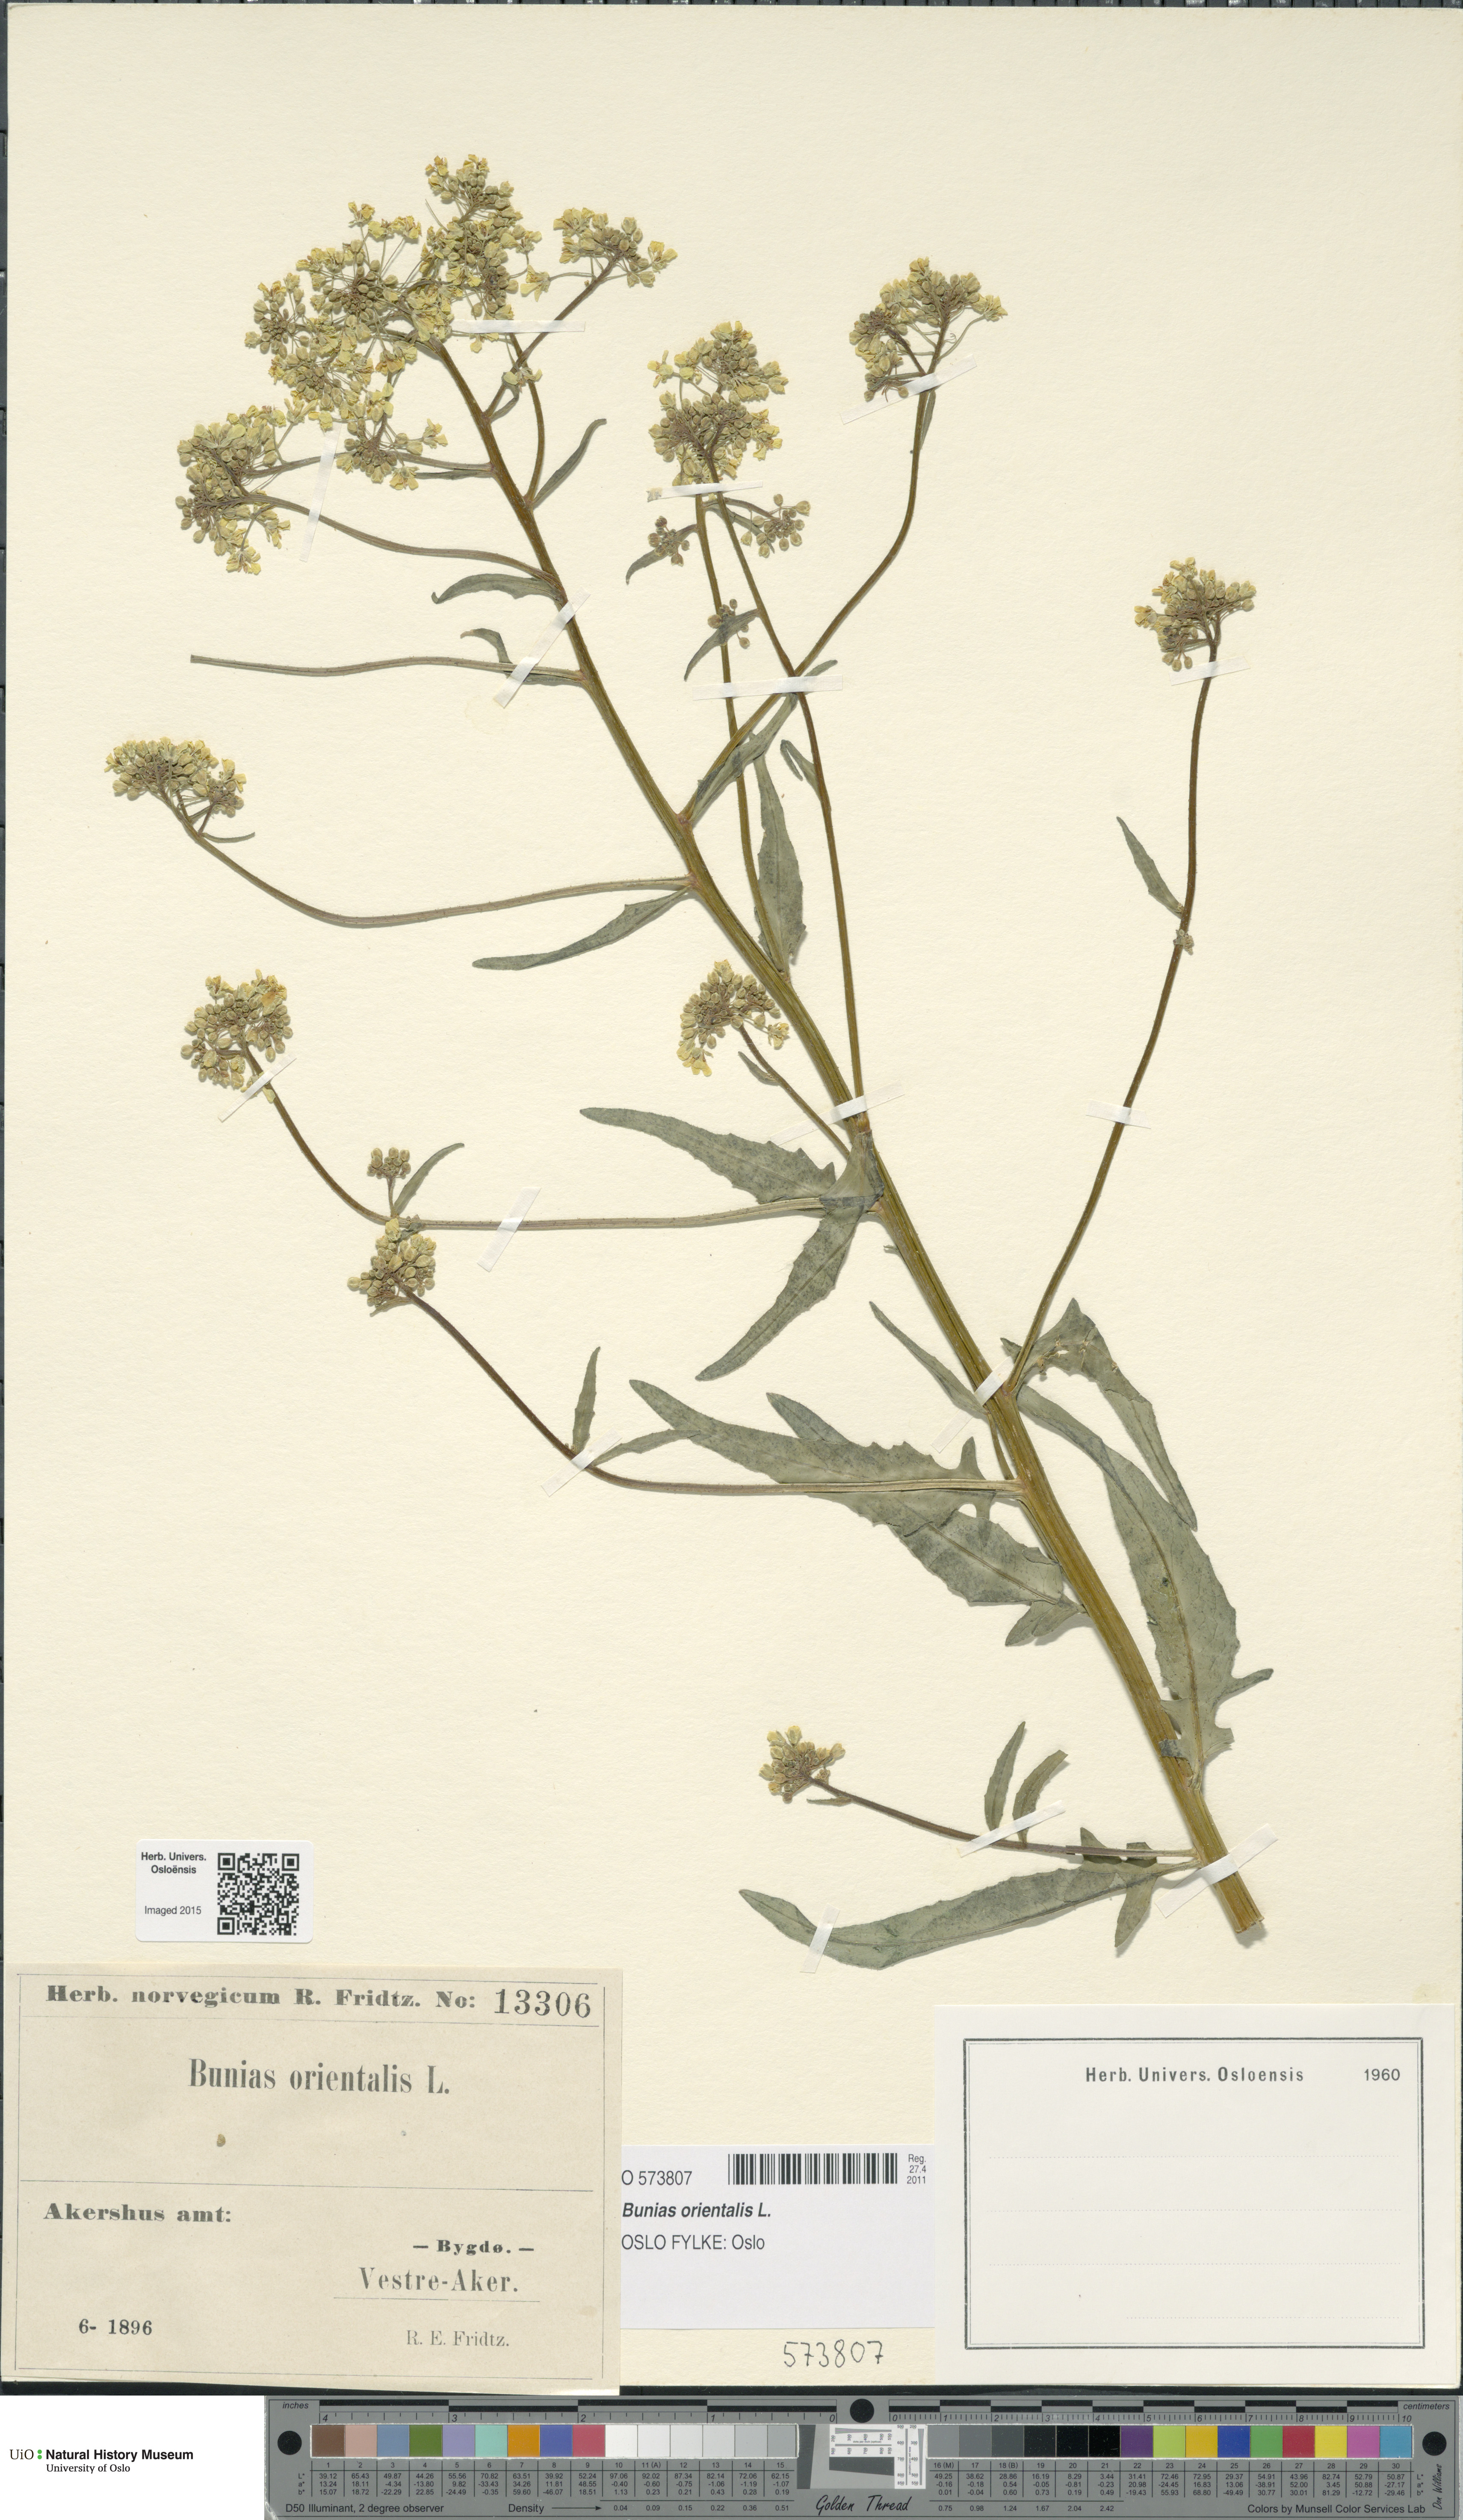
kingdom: Plantae
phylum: Tracheophyta
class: Magnoliopsida
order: Brassicales
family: Brassicaceae
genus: Bunias
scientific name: Bunias orientalis
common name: Warty-cabbage
